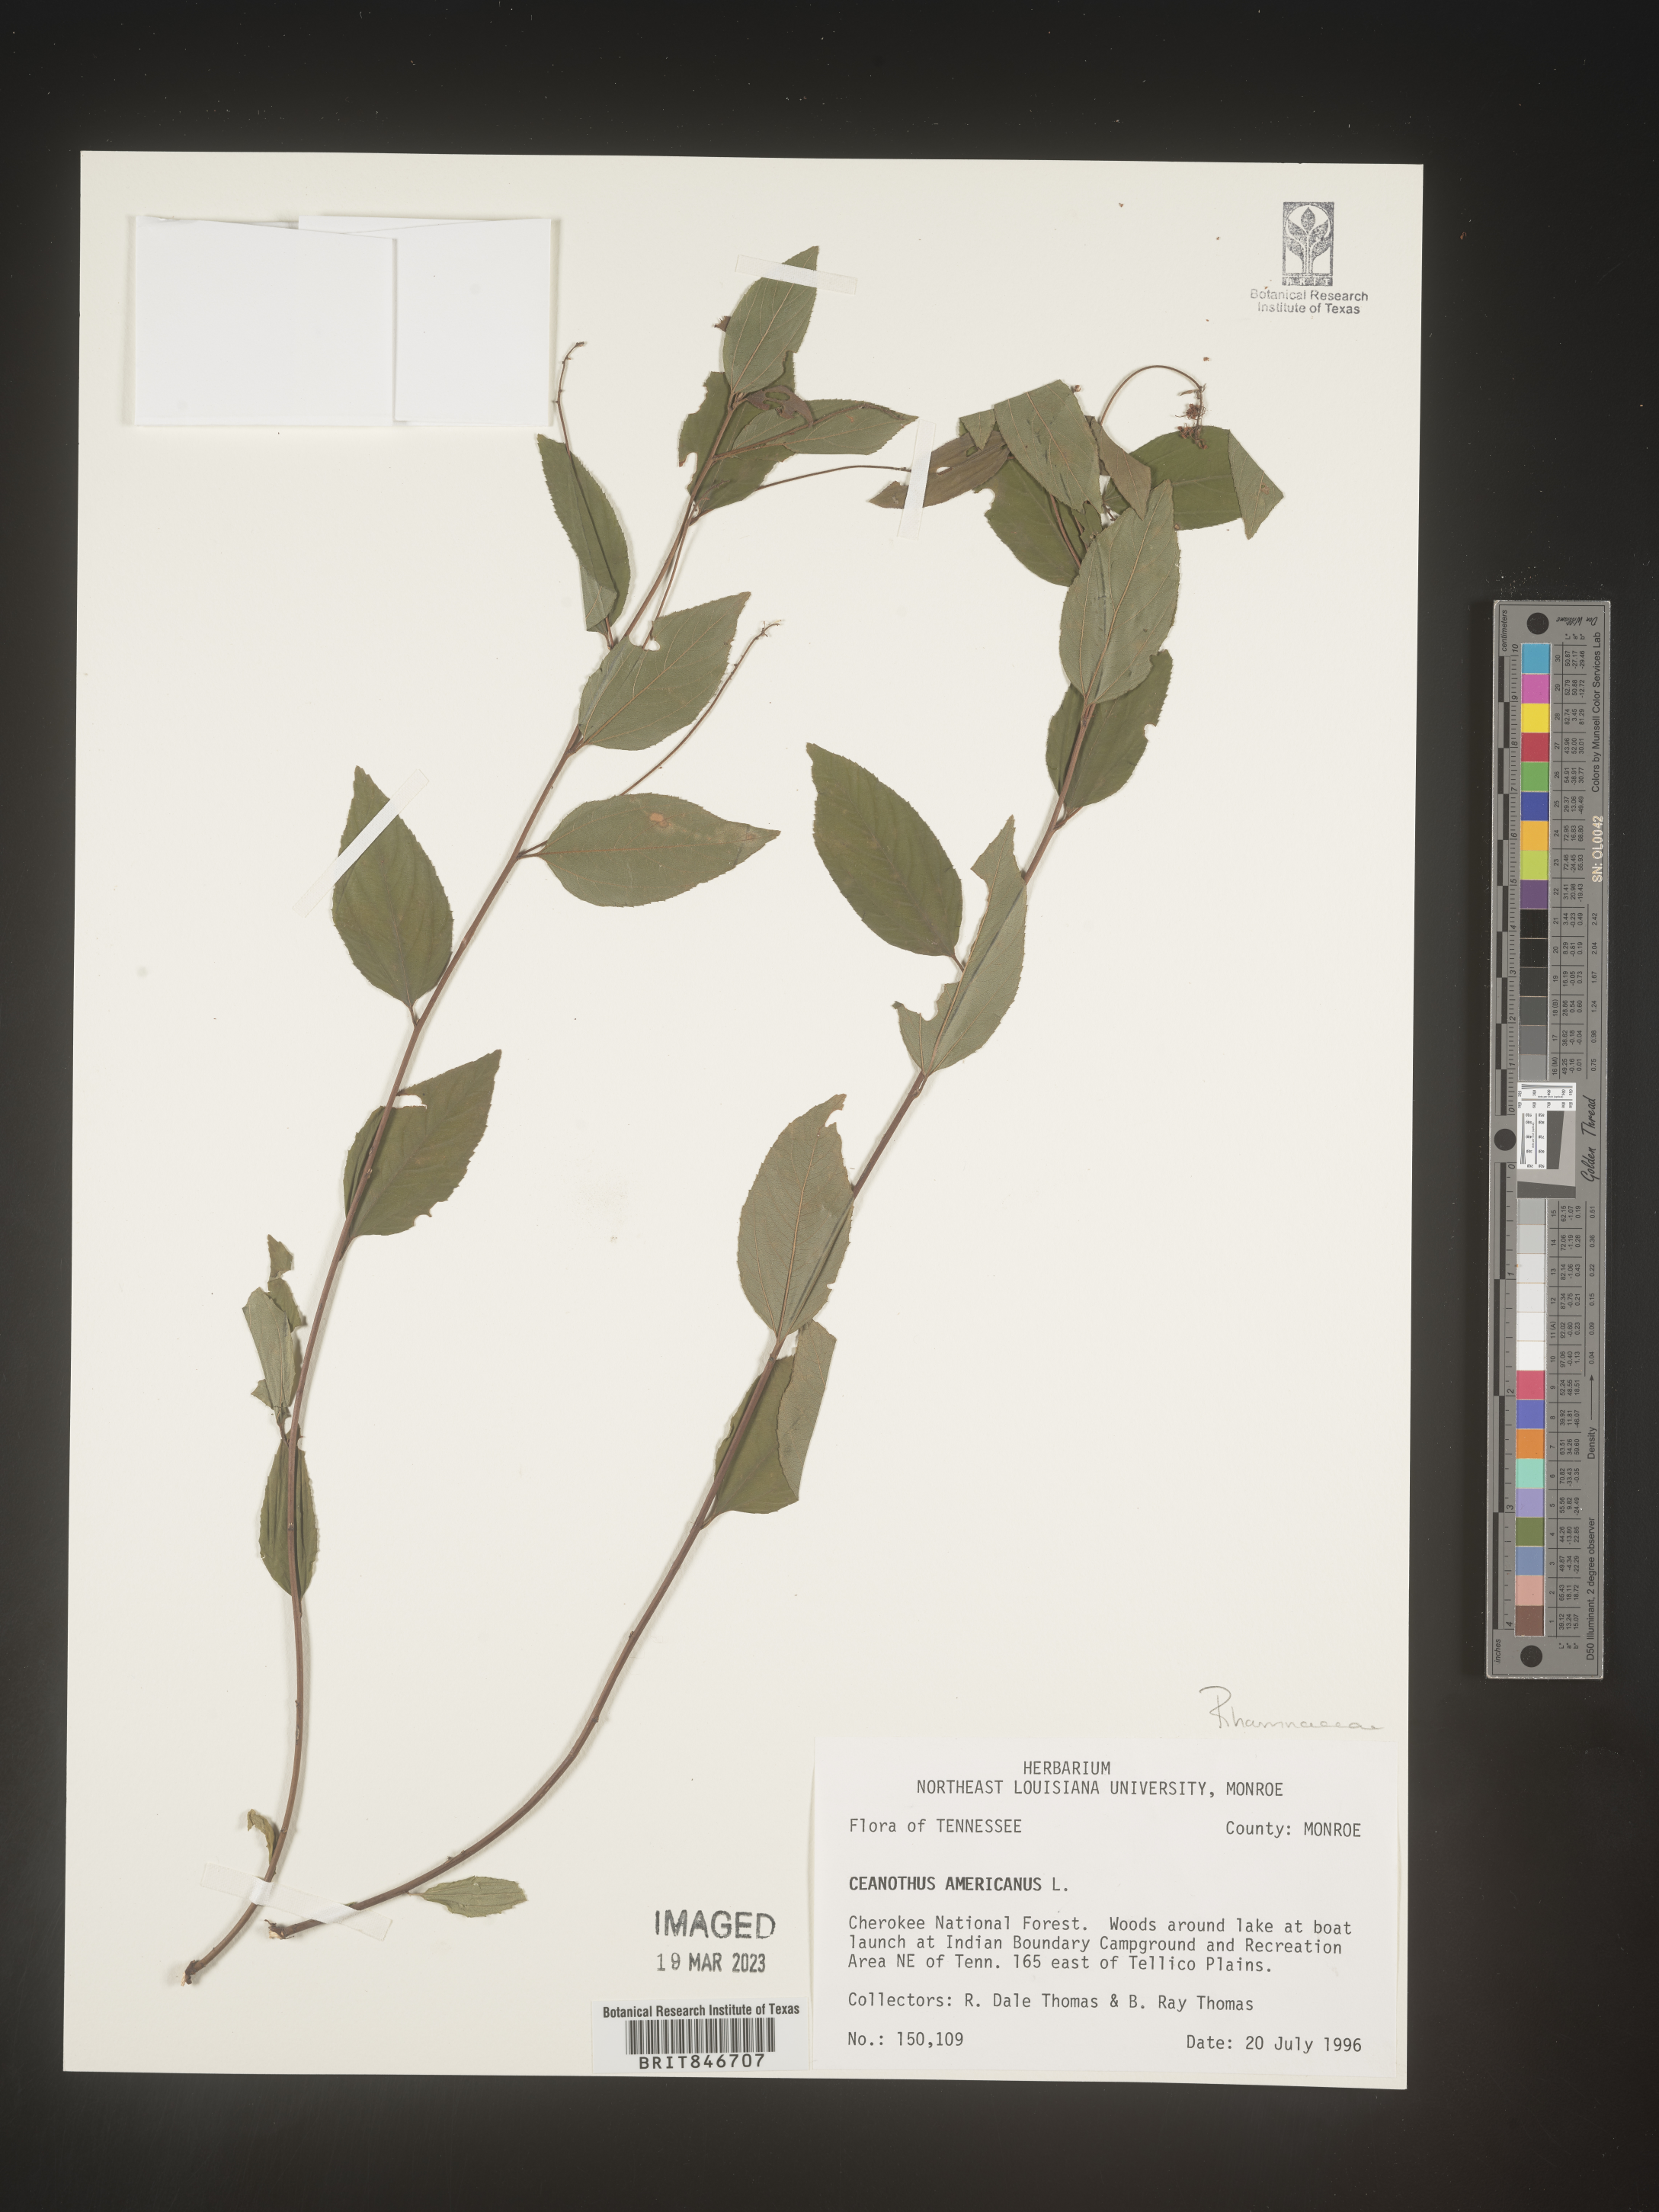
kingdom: Plantae
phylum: Tracheophyta
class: Magnoliopsida
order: Rosales
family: Rhamnaceae
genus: Ceanothus
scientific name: Ceanothus americanus
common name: Redroot
